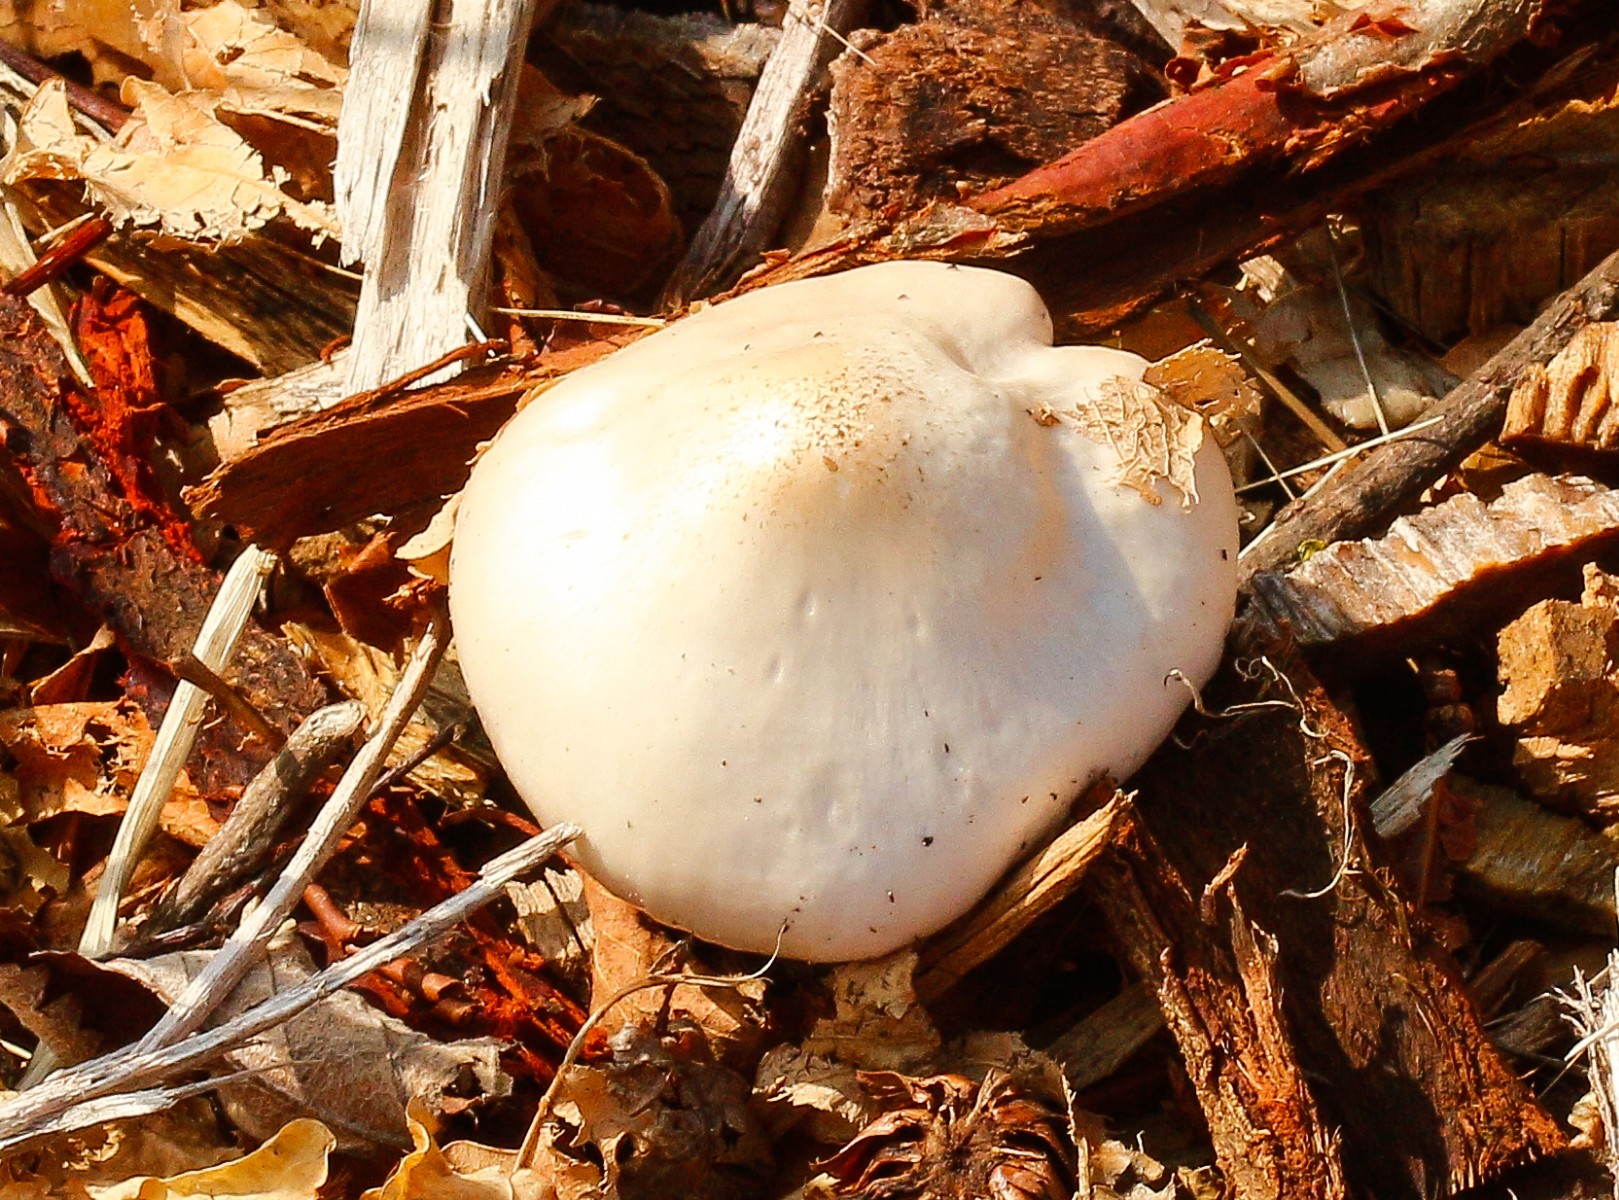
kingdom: Fungi
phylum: Basidiomycota
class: Agaricomycetes
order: Agaricales
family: Pluteaceae
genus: Pluteus
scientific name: Pluteus petasatus
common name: savsmulds-skærmhat
